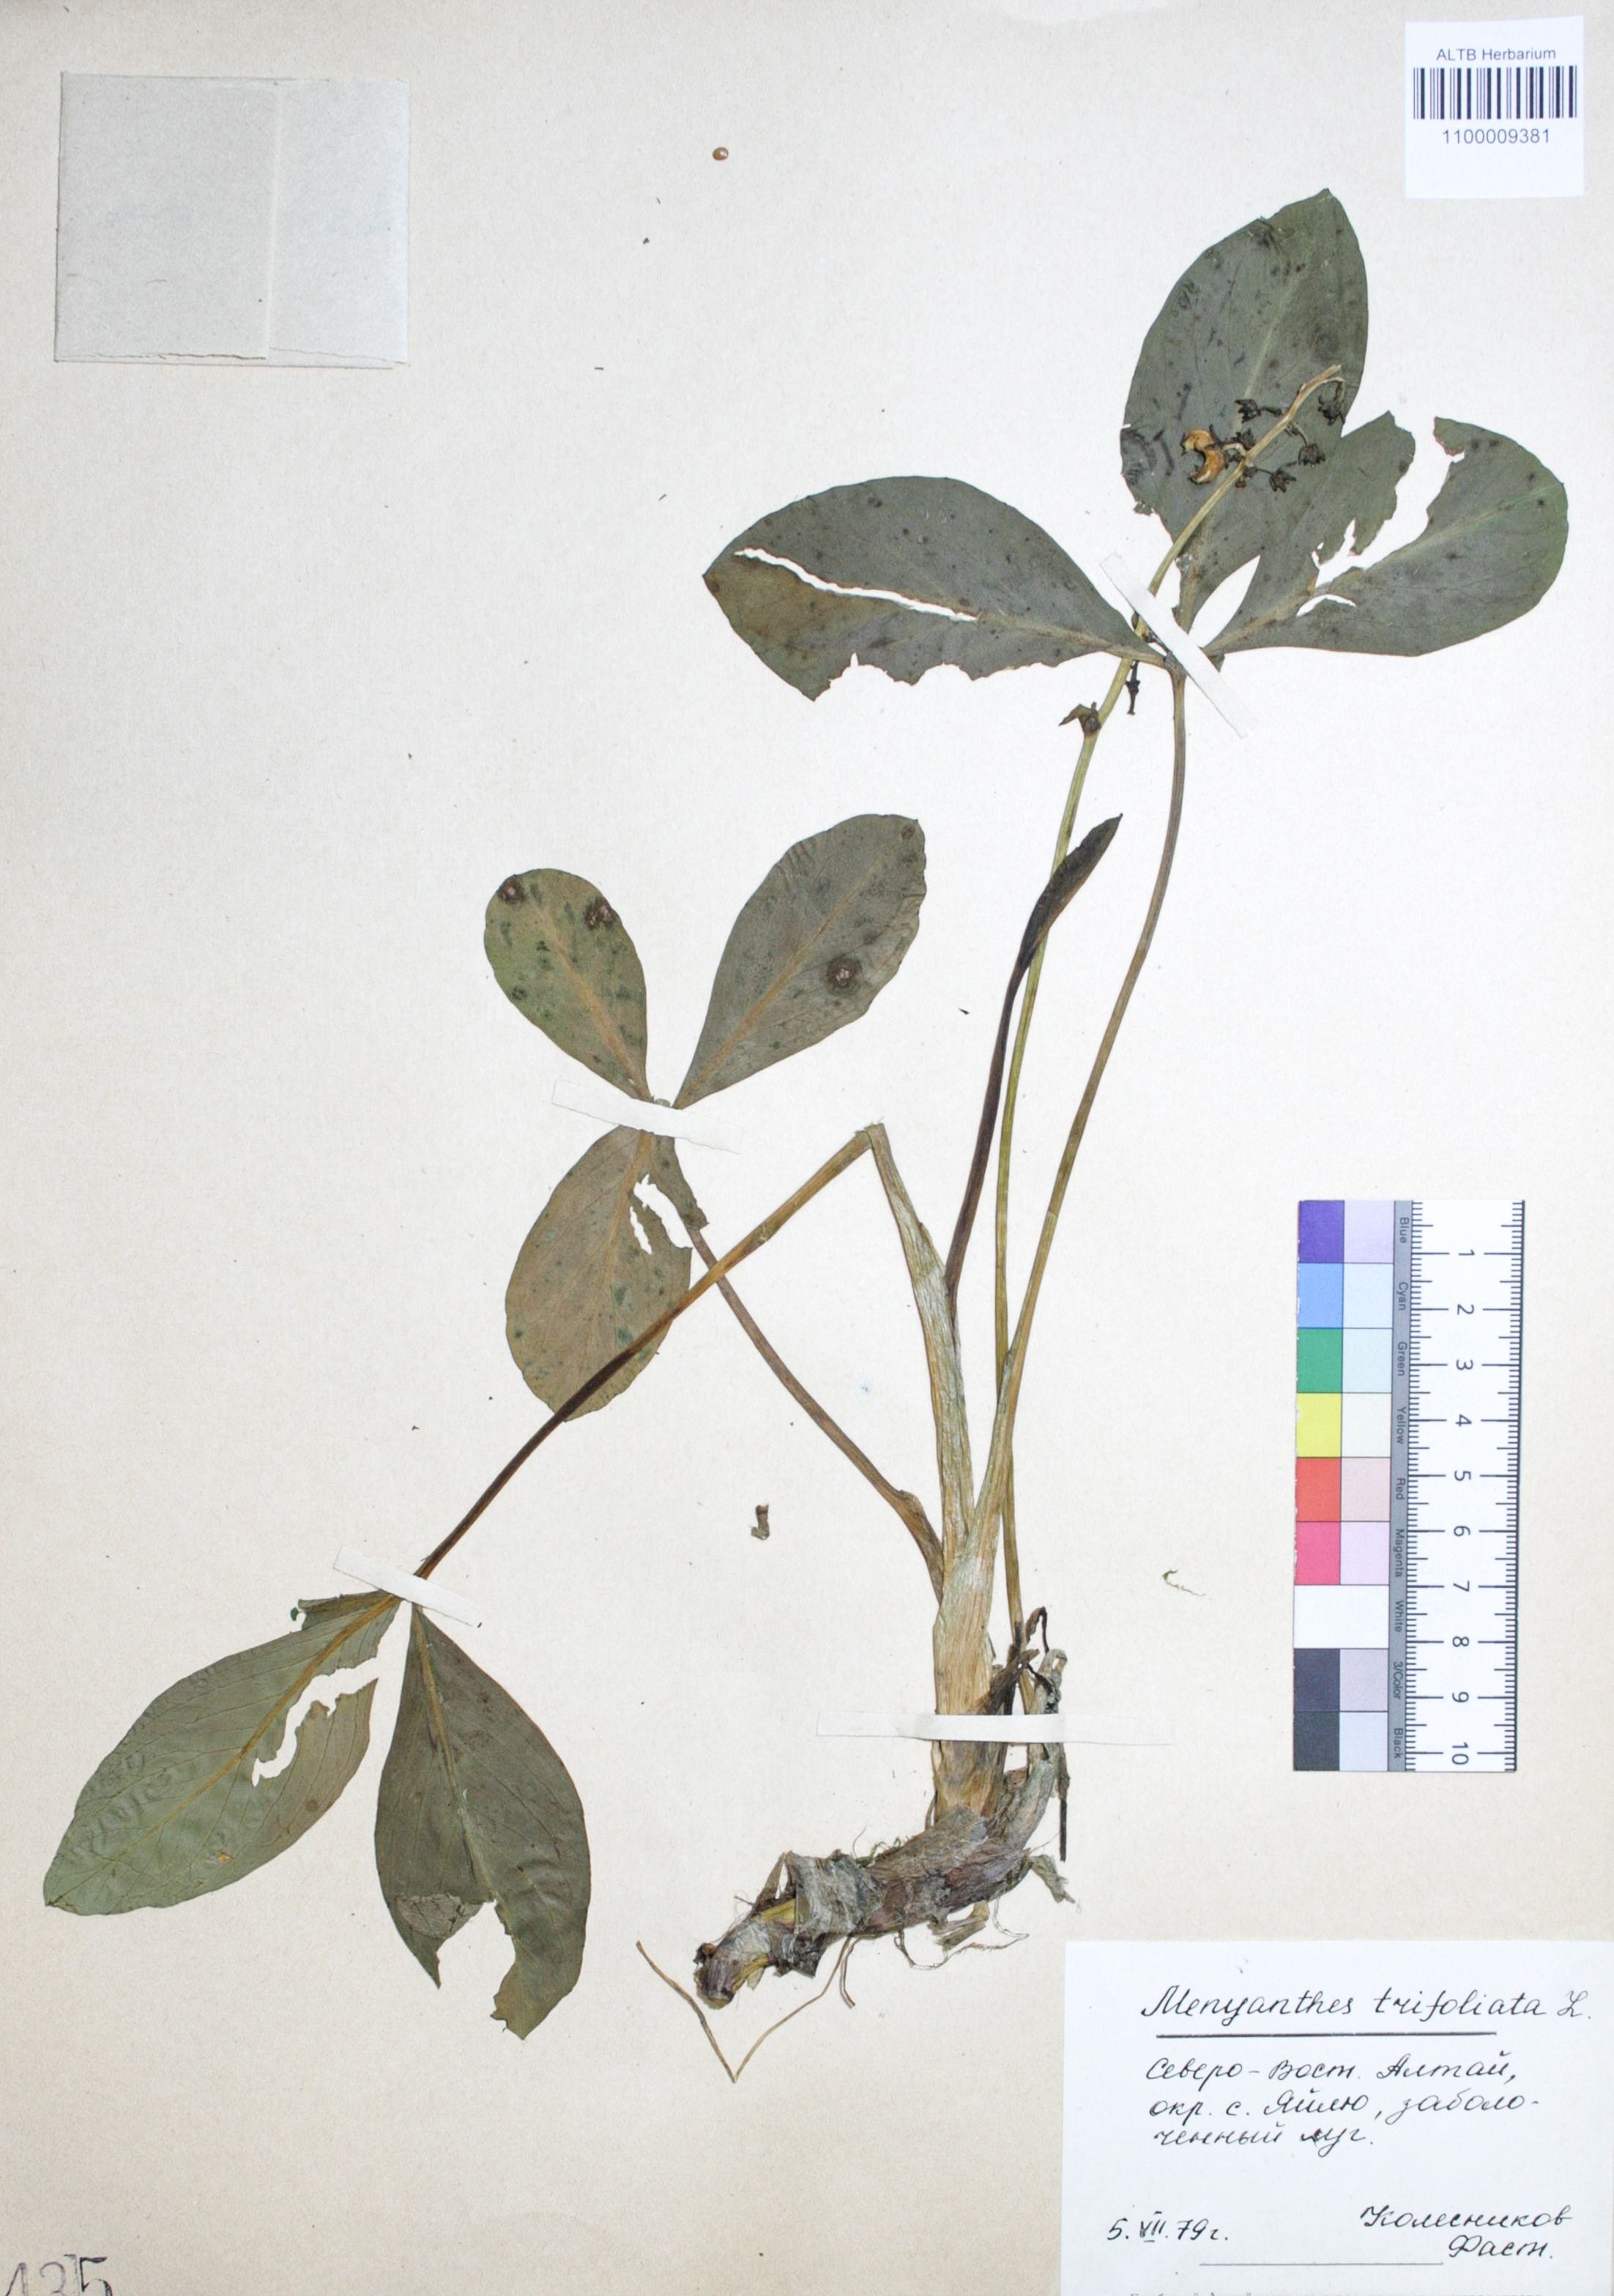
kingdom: Plantae
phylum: Tracheophyta
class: Magnoliopsida
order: Asterales
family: Menyanthaceae
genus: Menyanthes
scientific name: Menyanthes trifoliata
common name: Bogbean
